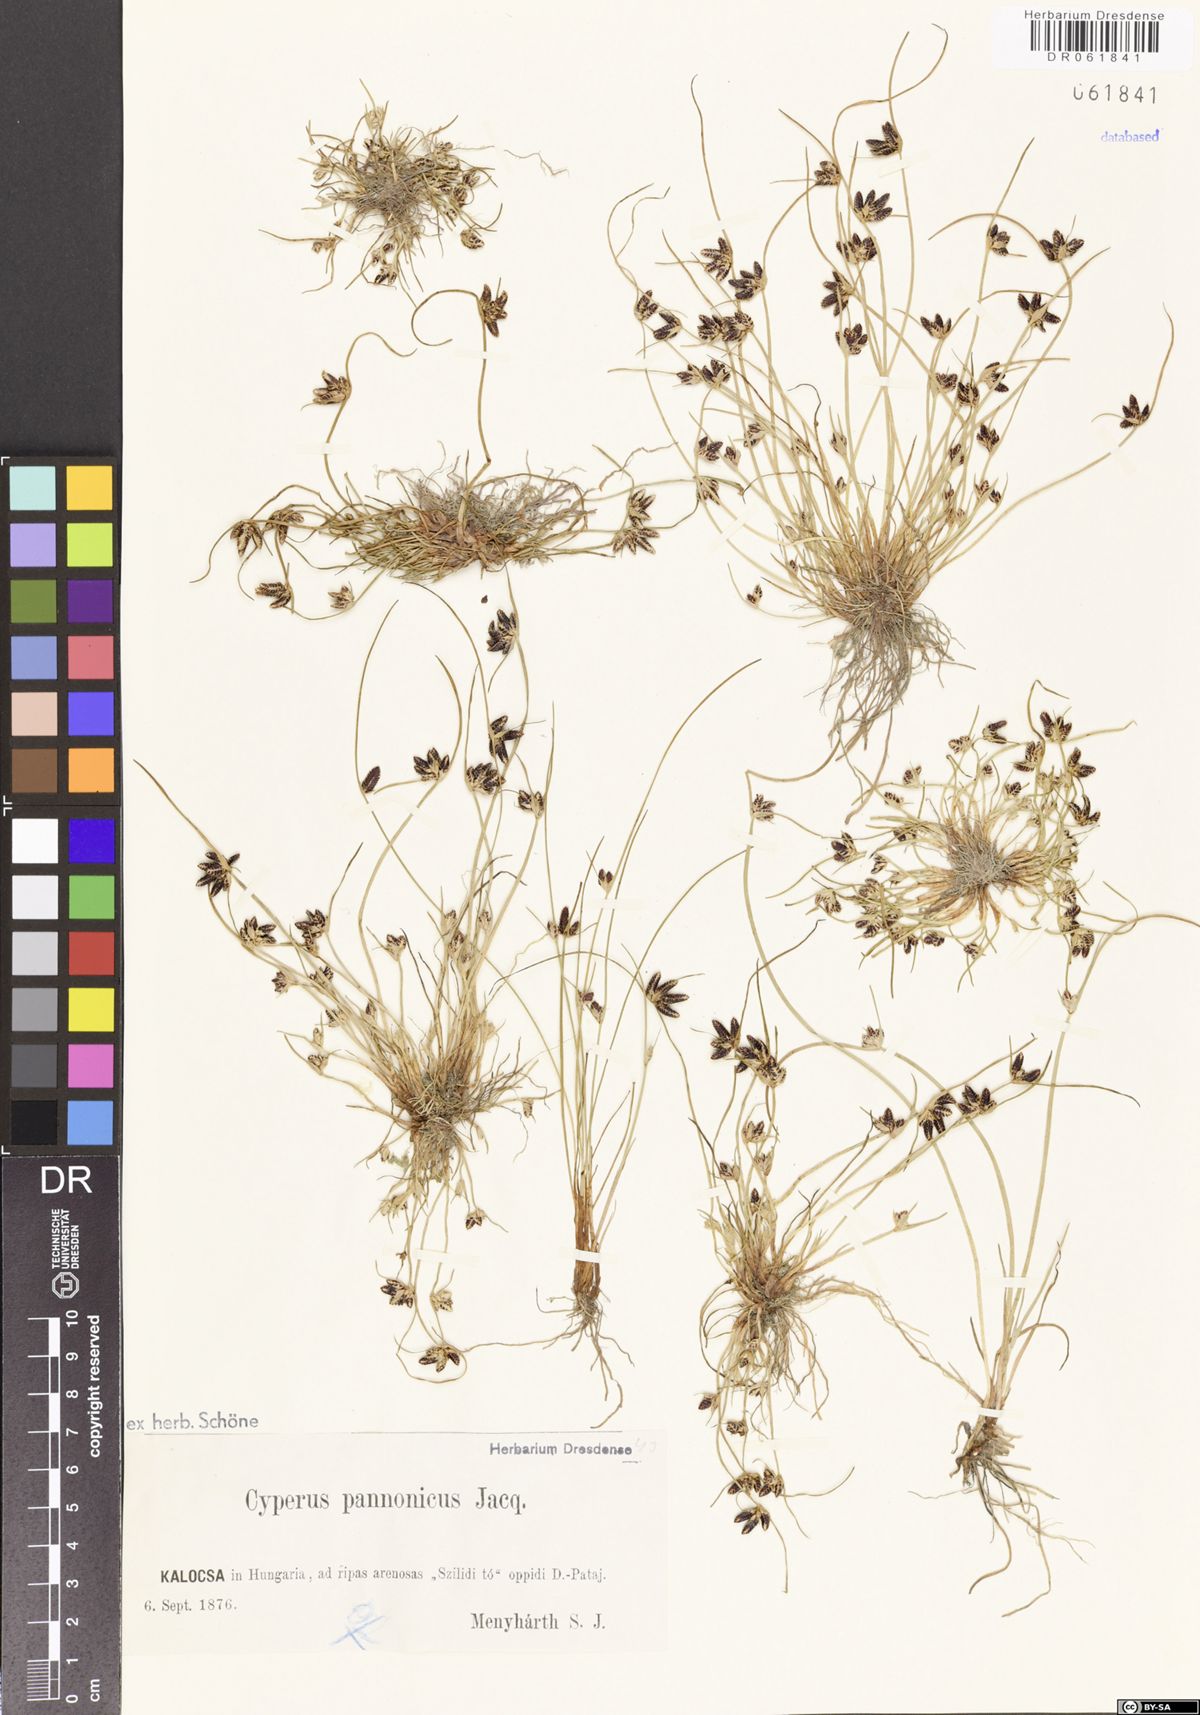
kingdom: Plantae
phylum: Tracheophyta
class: Liliopsida
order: Poales
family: Cyperaceae
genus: Cyperus
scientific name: Cyperus pannonicus
